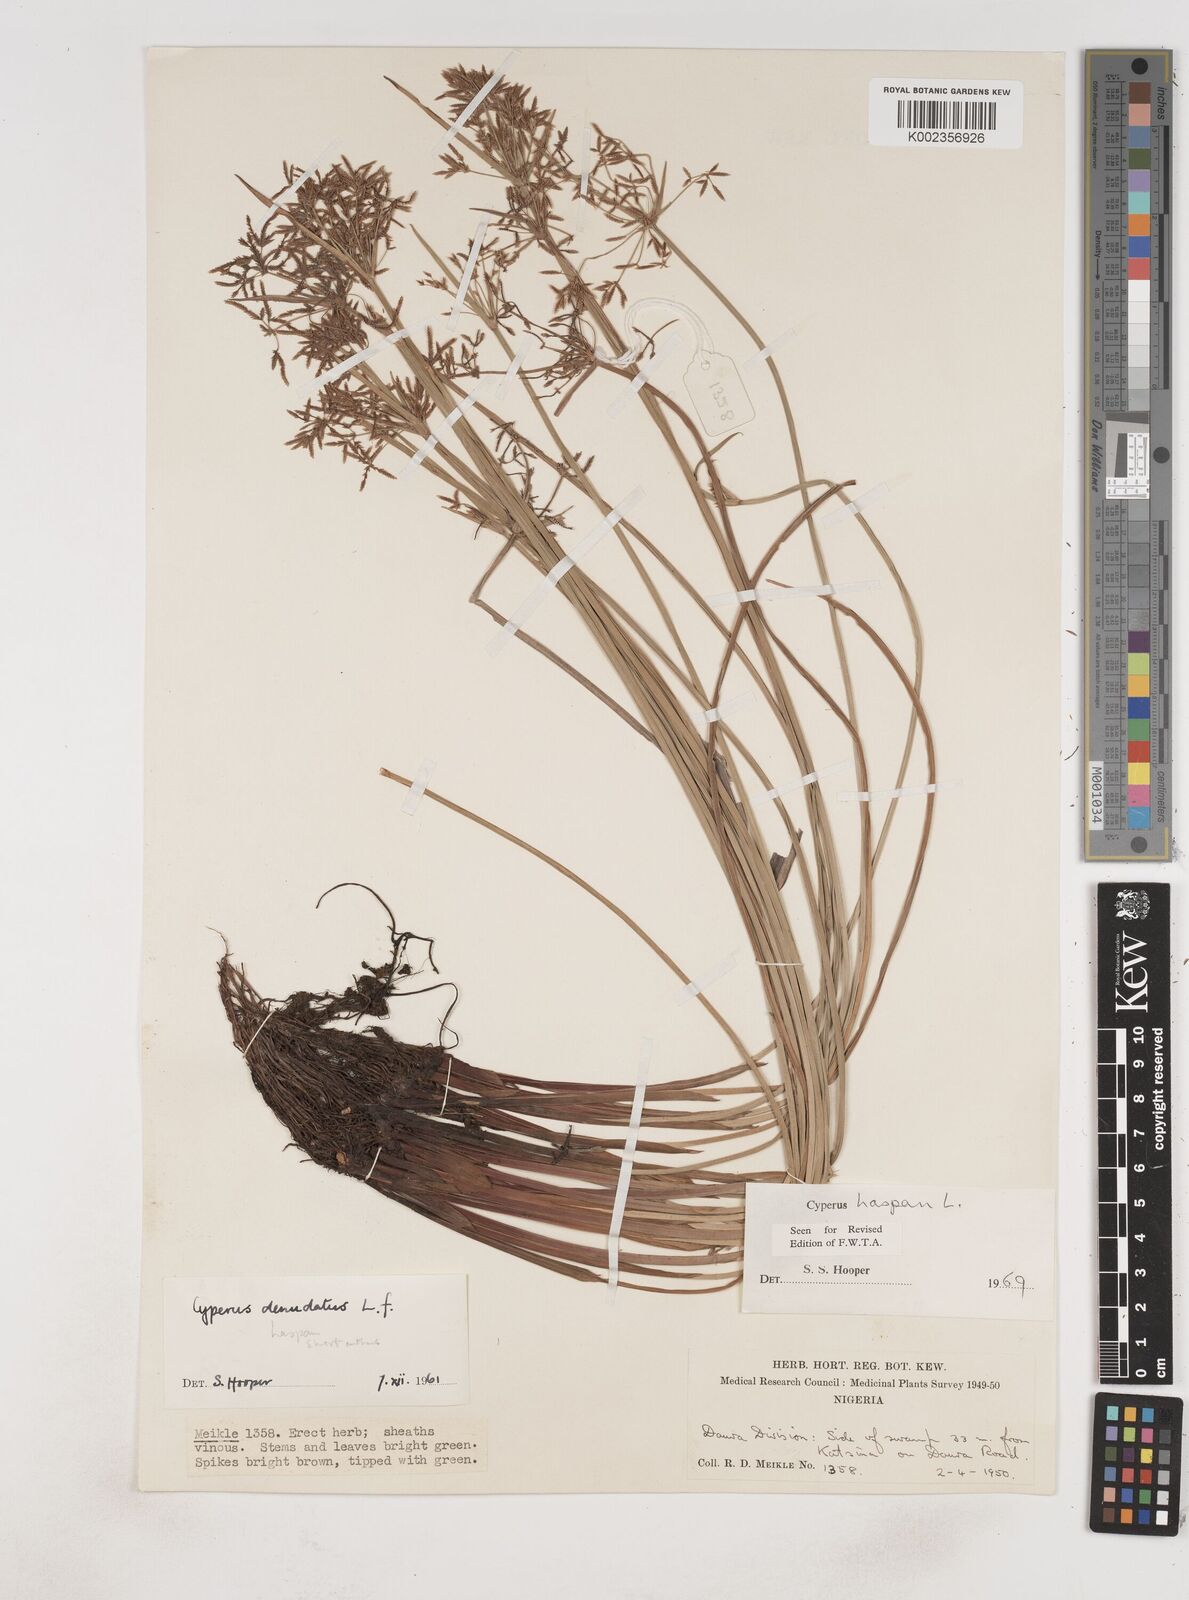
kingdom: Plantae
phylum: Tracheophyta
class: Liliopsida
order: Poales
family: Cyperaceae
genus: Cyperus
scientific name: Cyperus haspan
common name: Haspan flatsedge
